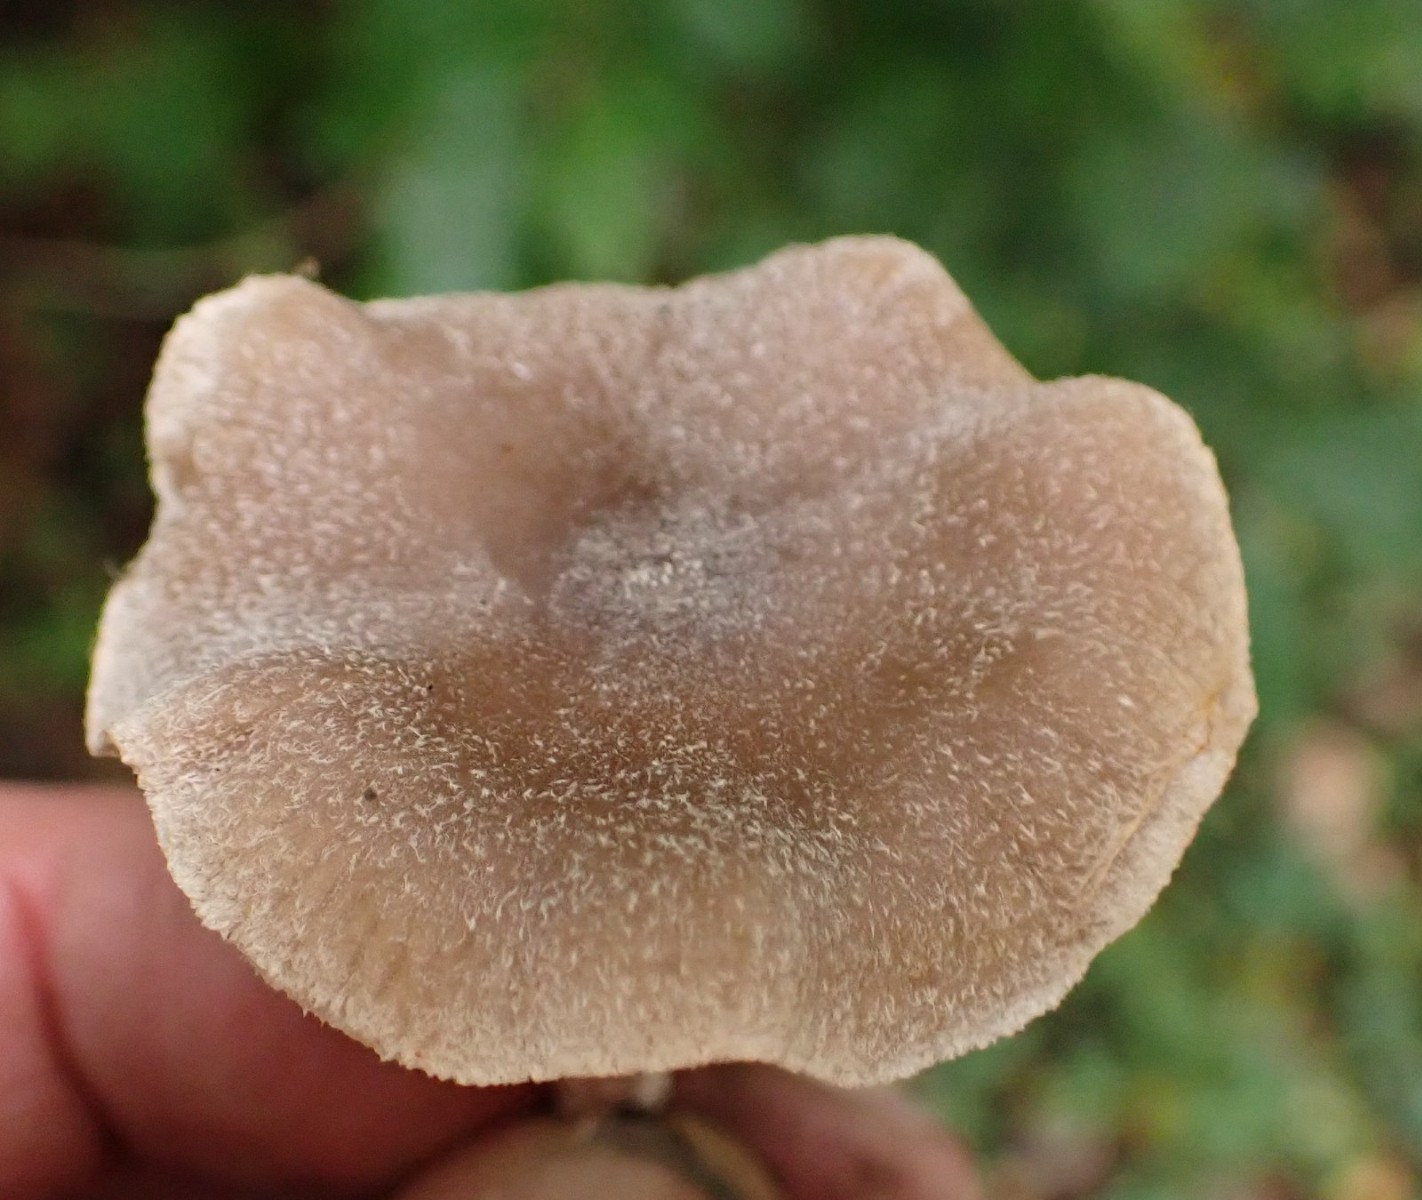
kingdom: Fungi
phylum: Basidiomycota
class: Agaricomycetes
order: Agaricales
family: Cortinariaceae
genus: Cortinarius
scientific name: Cortinarius hemitrichus
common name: hvidfnugget slørhat
